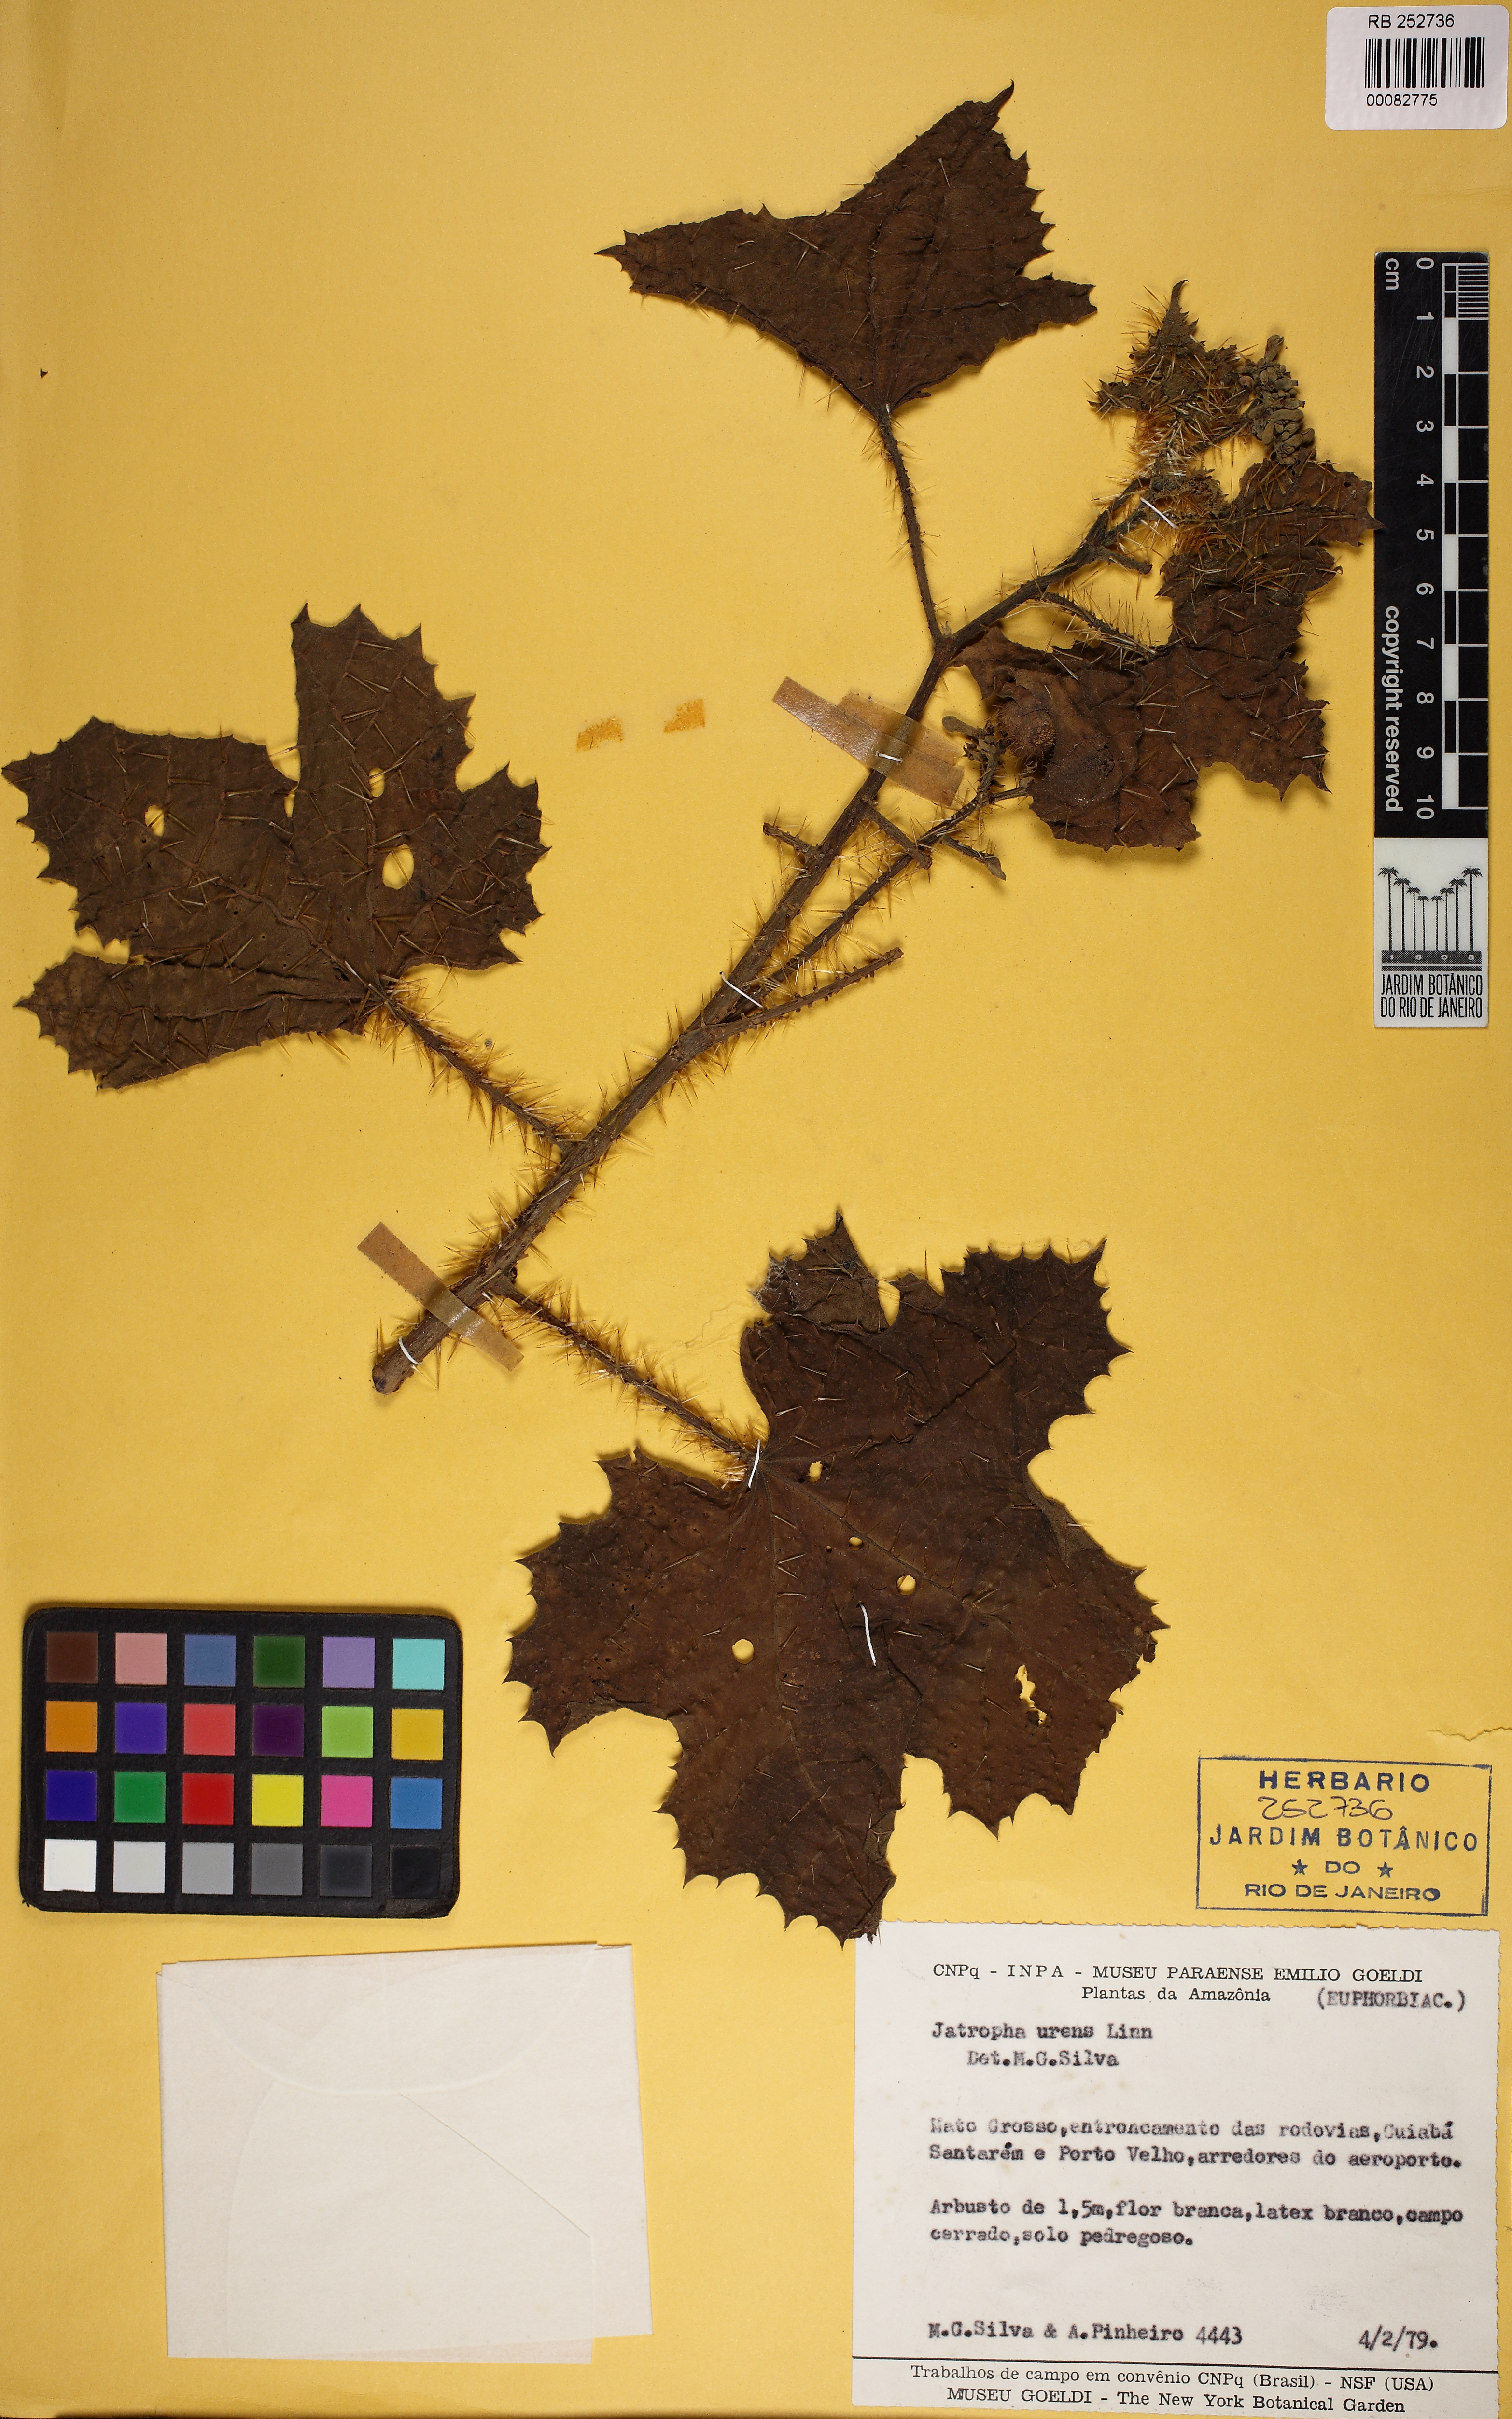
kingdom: Plantae
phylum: Tracheophyta
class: Magnoliopsida
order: Malpighiales
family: Euphorbiaceae
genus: Cnidoscolus
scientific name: Cnidoscolus urens
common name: Bull-nettle
